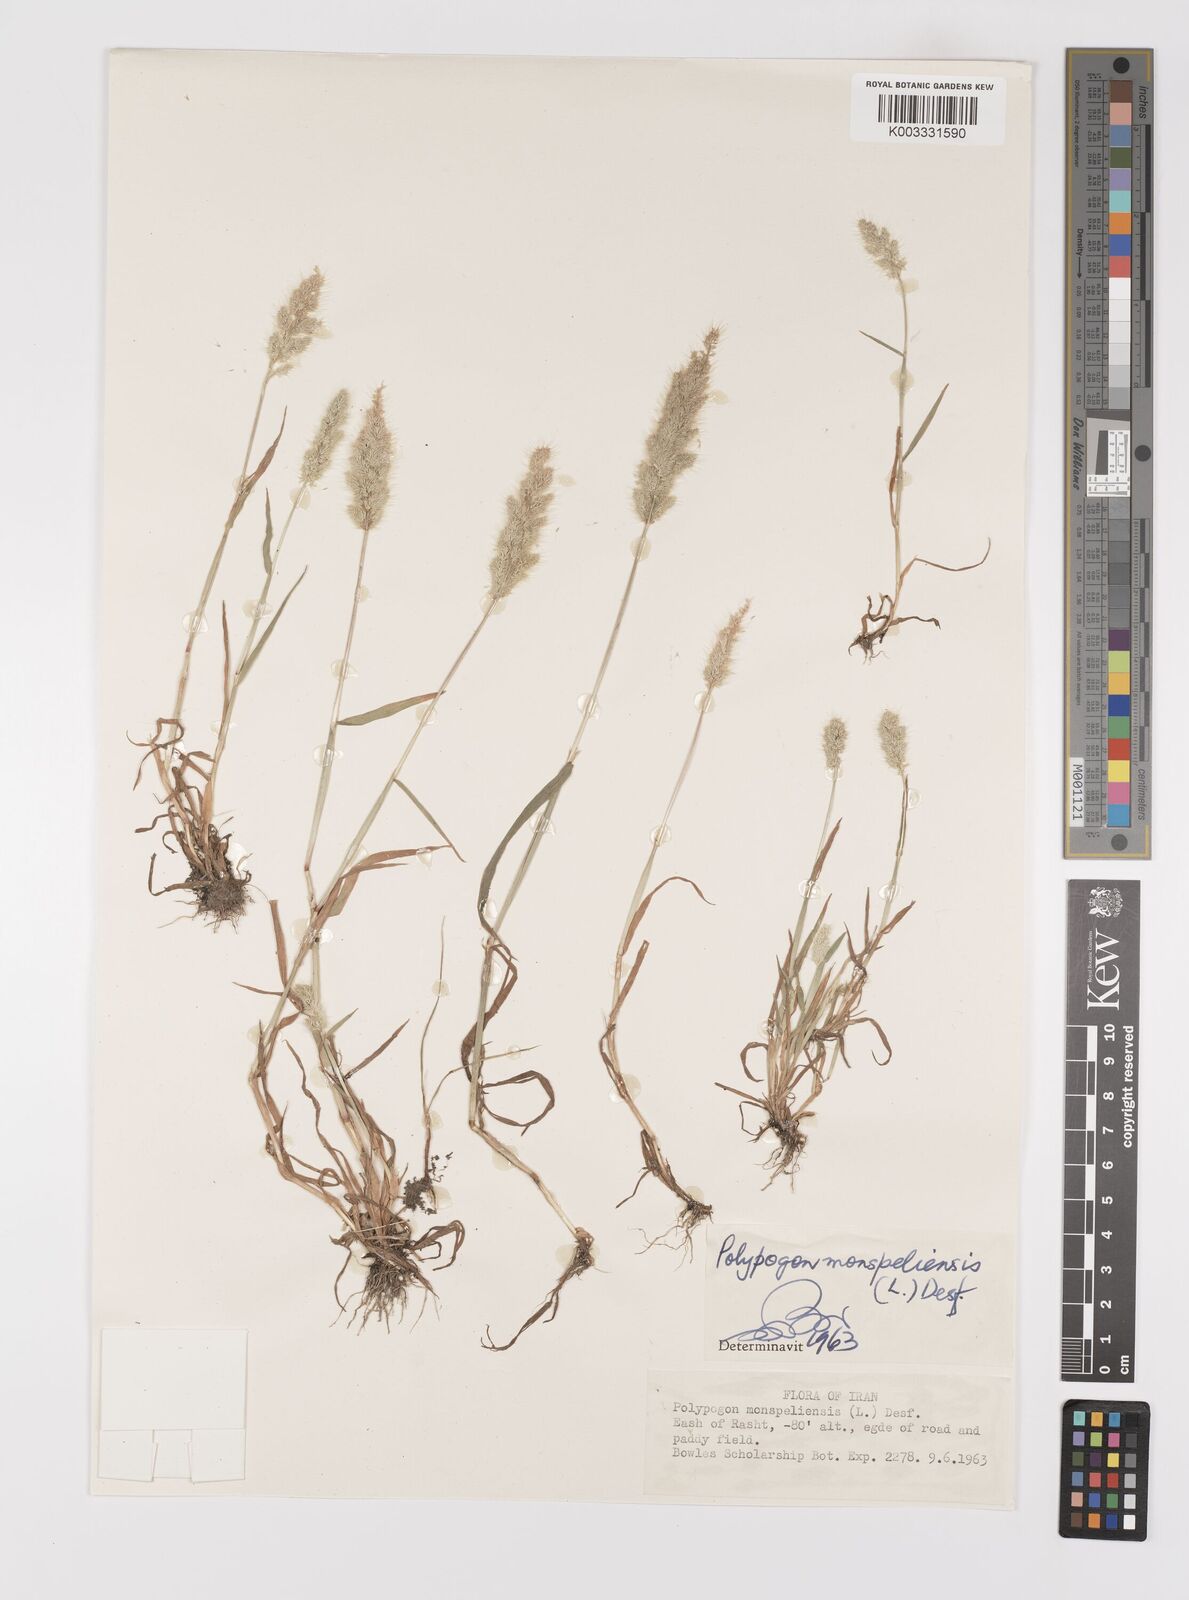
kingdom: Plantae
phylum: Tracheophyta
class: Liliopsida
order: Poales
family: Poaceae
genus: Polypogon
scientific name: Polypogon monspeliensis
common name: Annual rabbitsfoot grass
